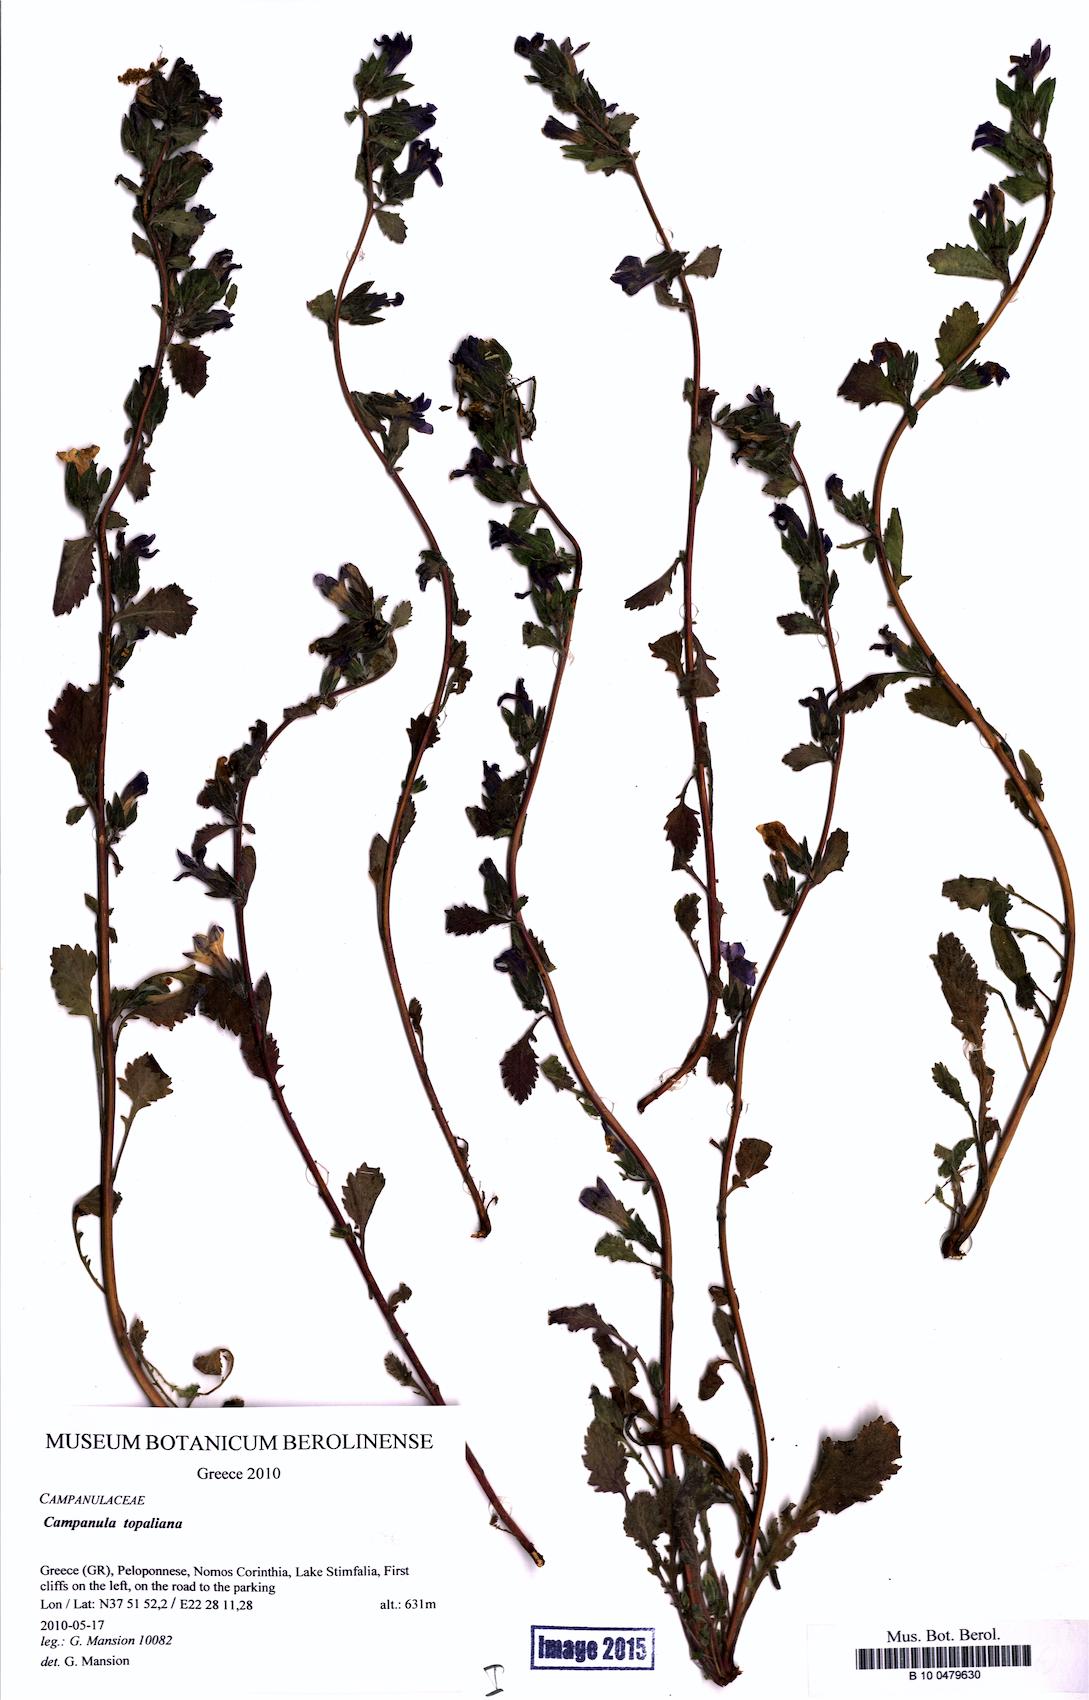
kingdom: Plantae
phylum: Tracheophyta
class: Magnoliopsida
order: Asterales
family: Campanulaceae
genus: Campanula
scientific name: Campanula topaliana
